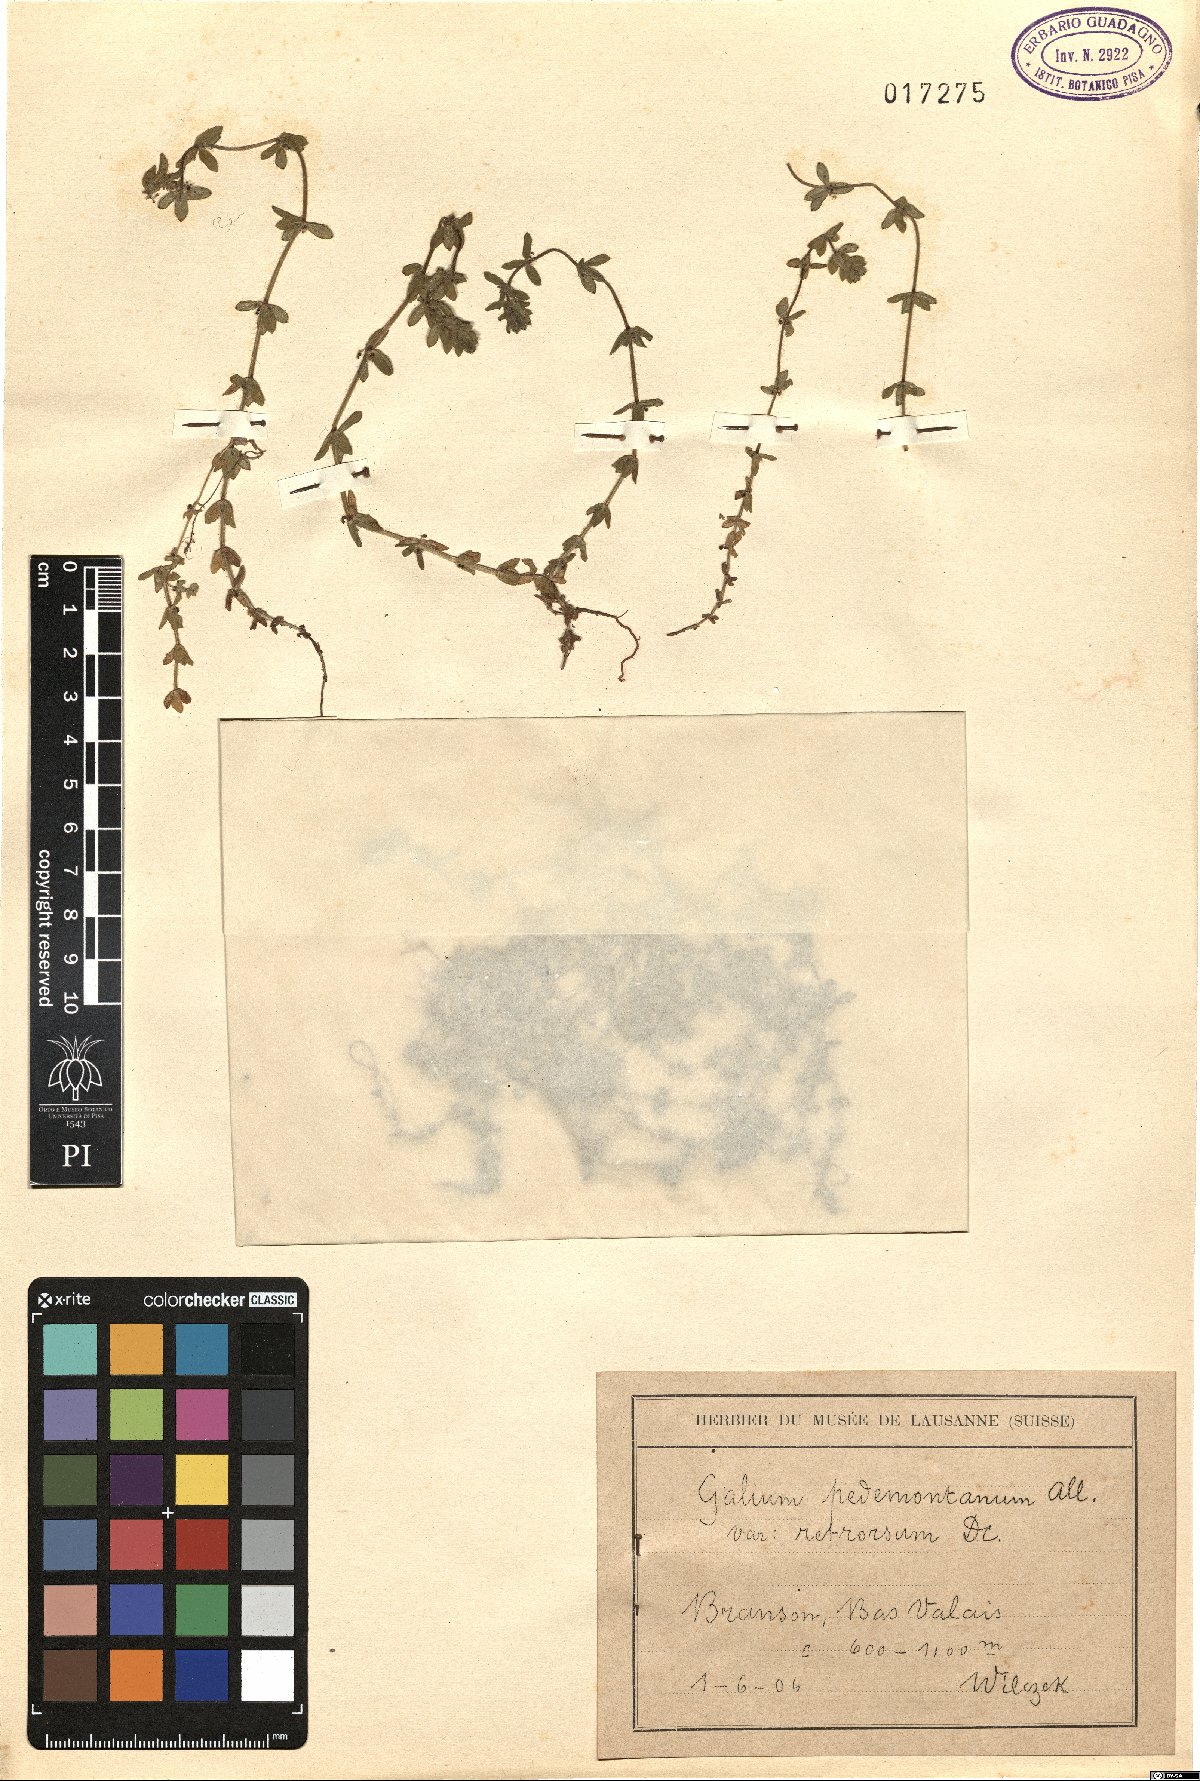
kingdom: Plantae
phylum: Tracheophyta
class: Magnoliopsida
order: Gentianales
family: Rubiaceae
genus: Cruciata
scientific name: Cruciata pedemontana
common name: Piedmont bedstraw
